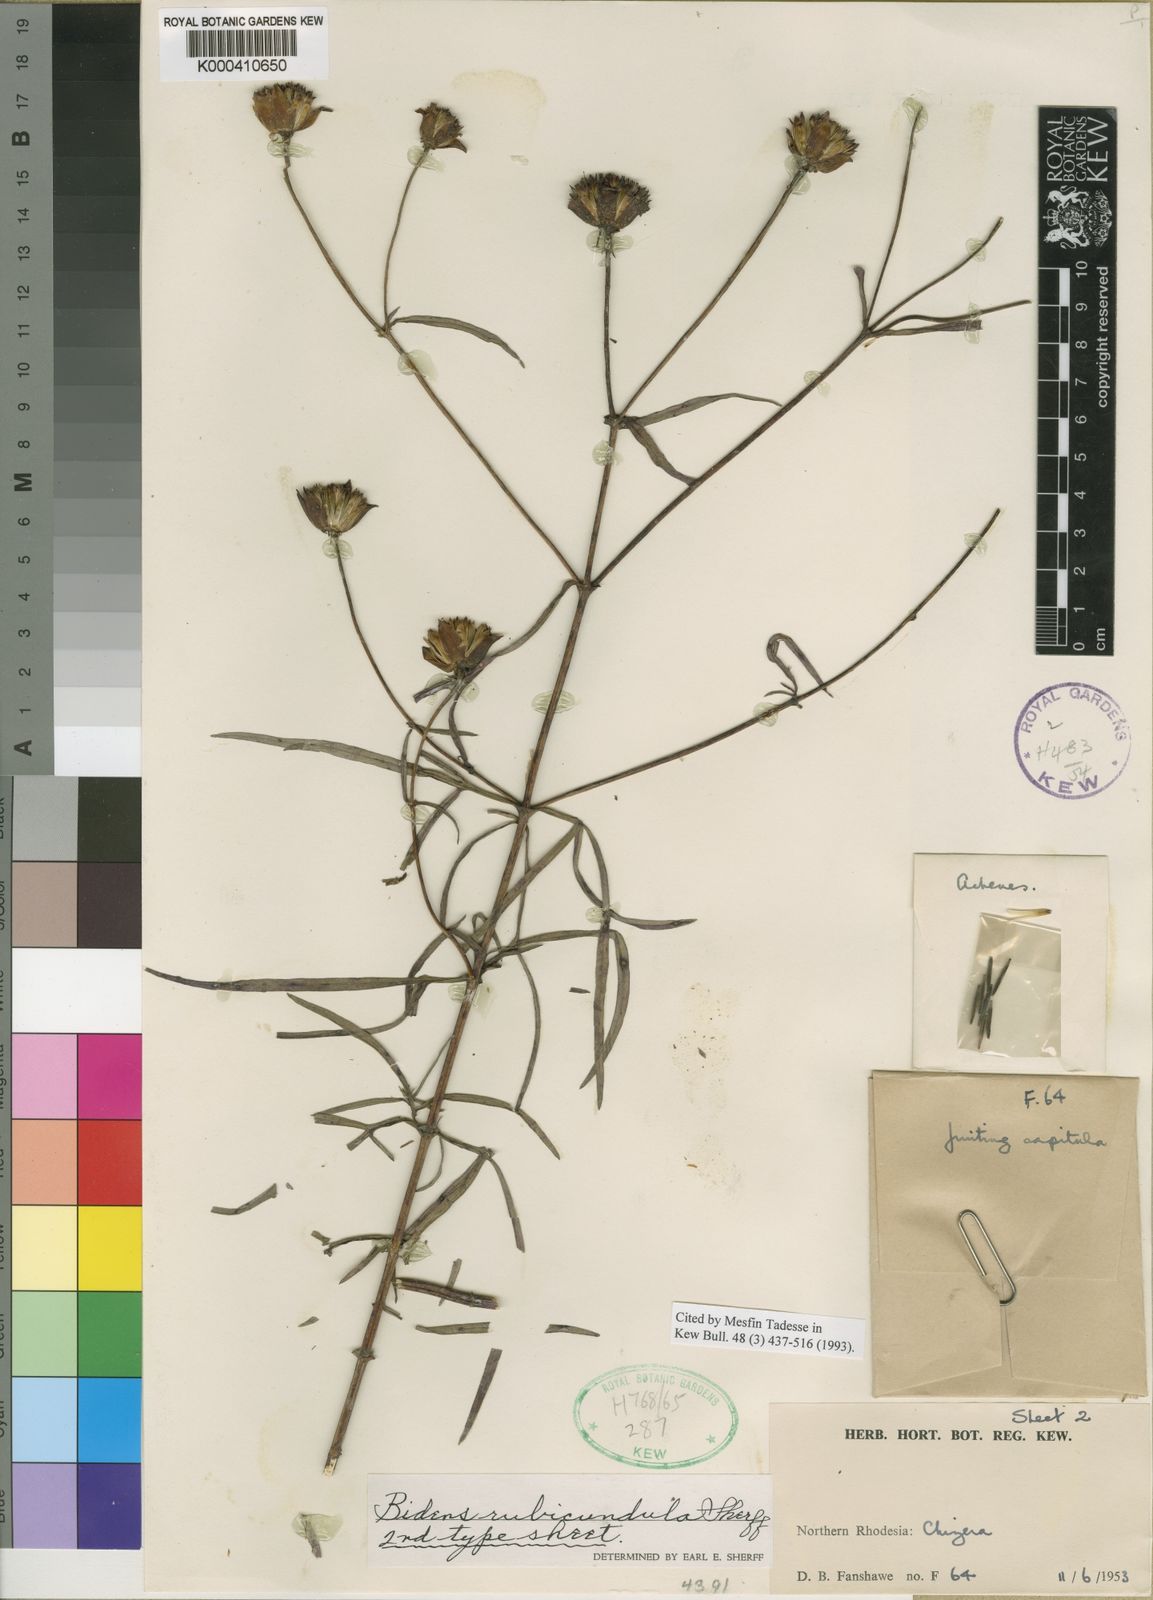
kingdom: Plantae
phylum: Tracheophyta
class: Magnoliopsida
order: Asterales
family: Asteraceae
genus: Bidens
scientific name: Bidens rubicundula
